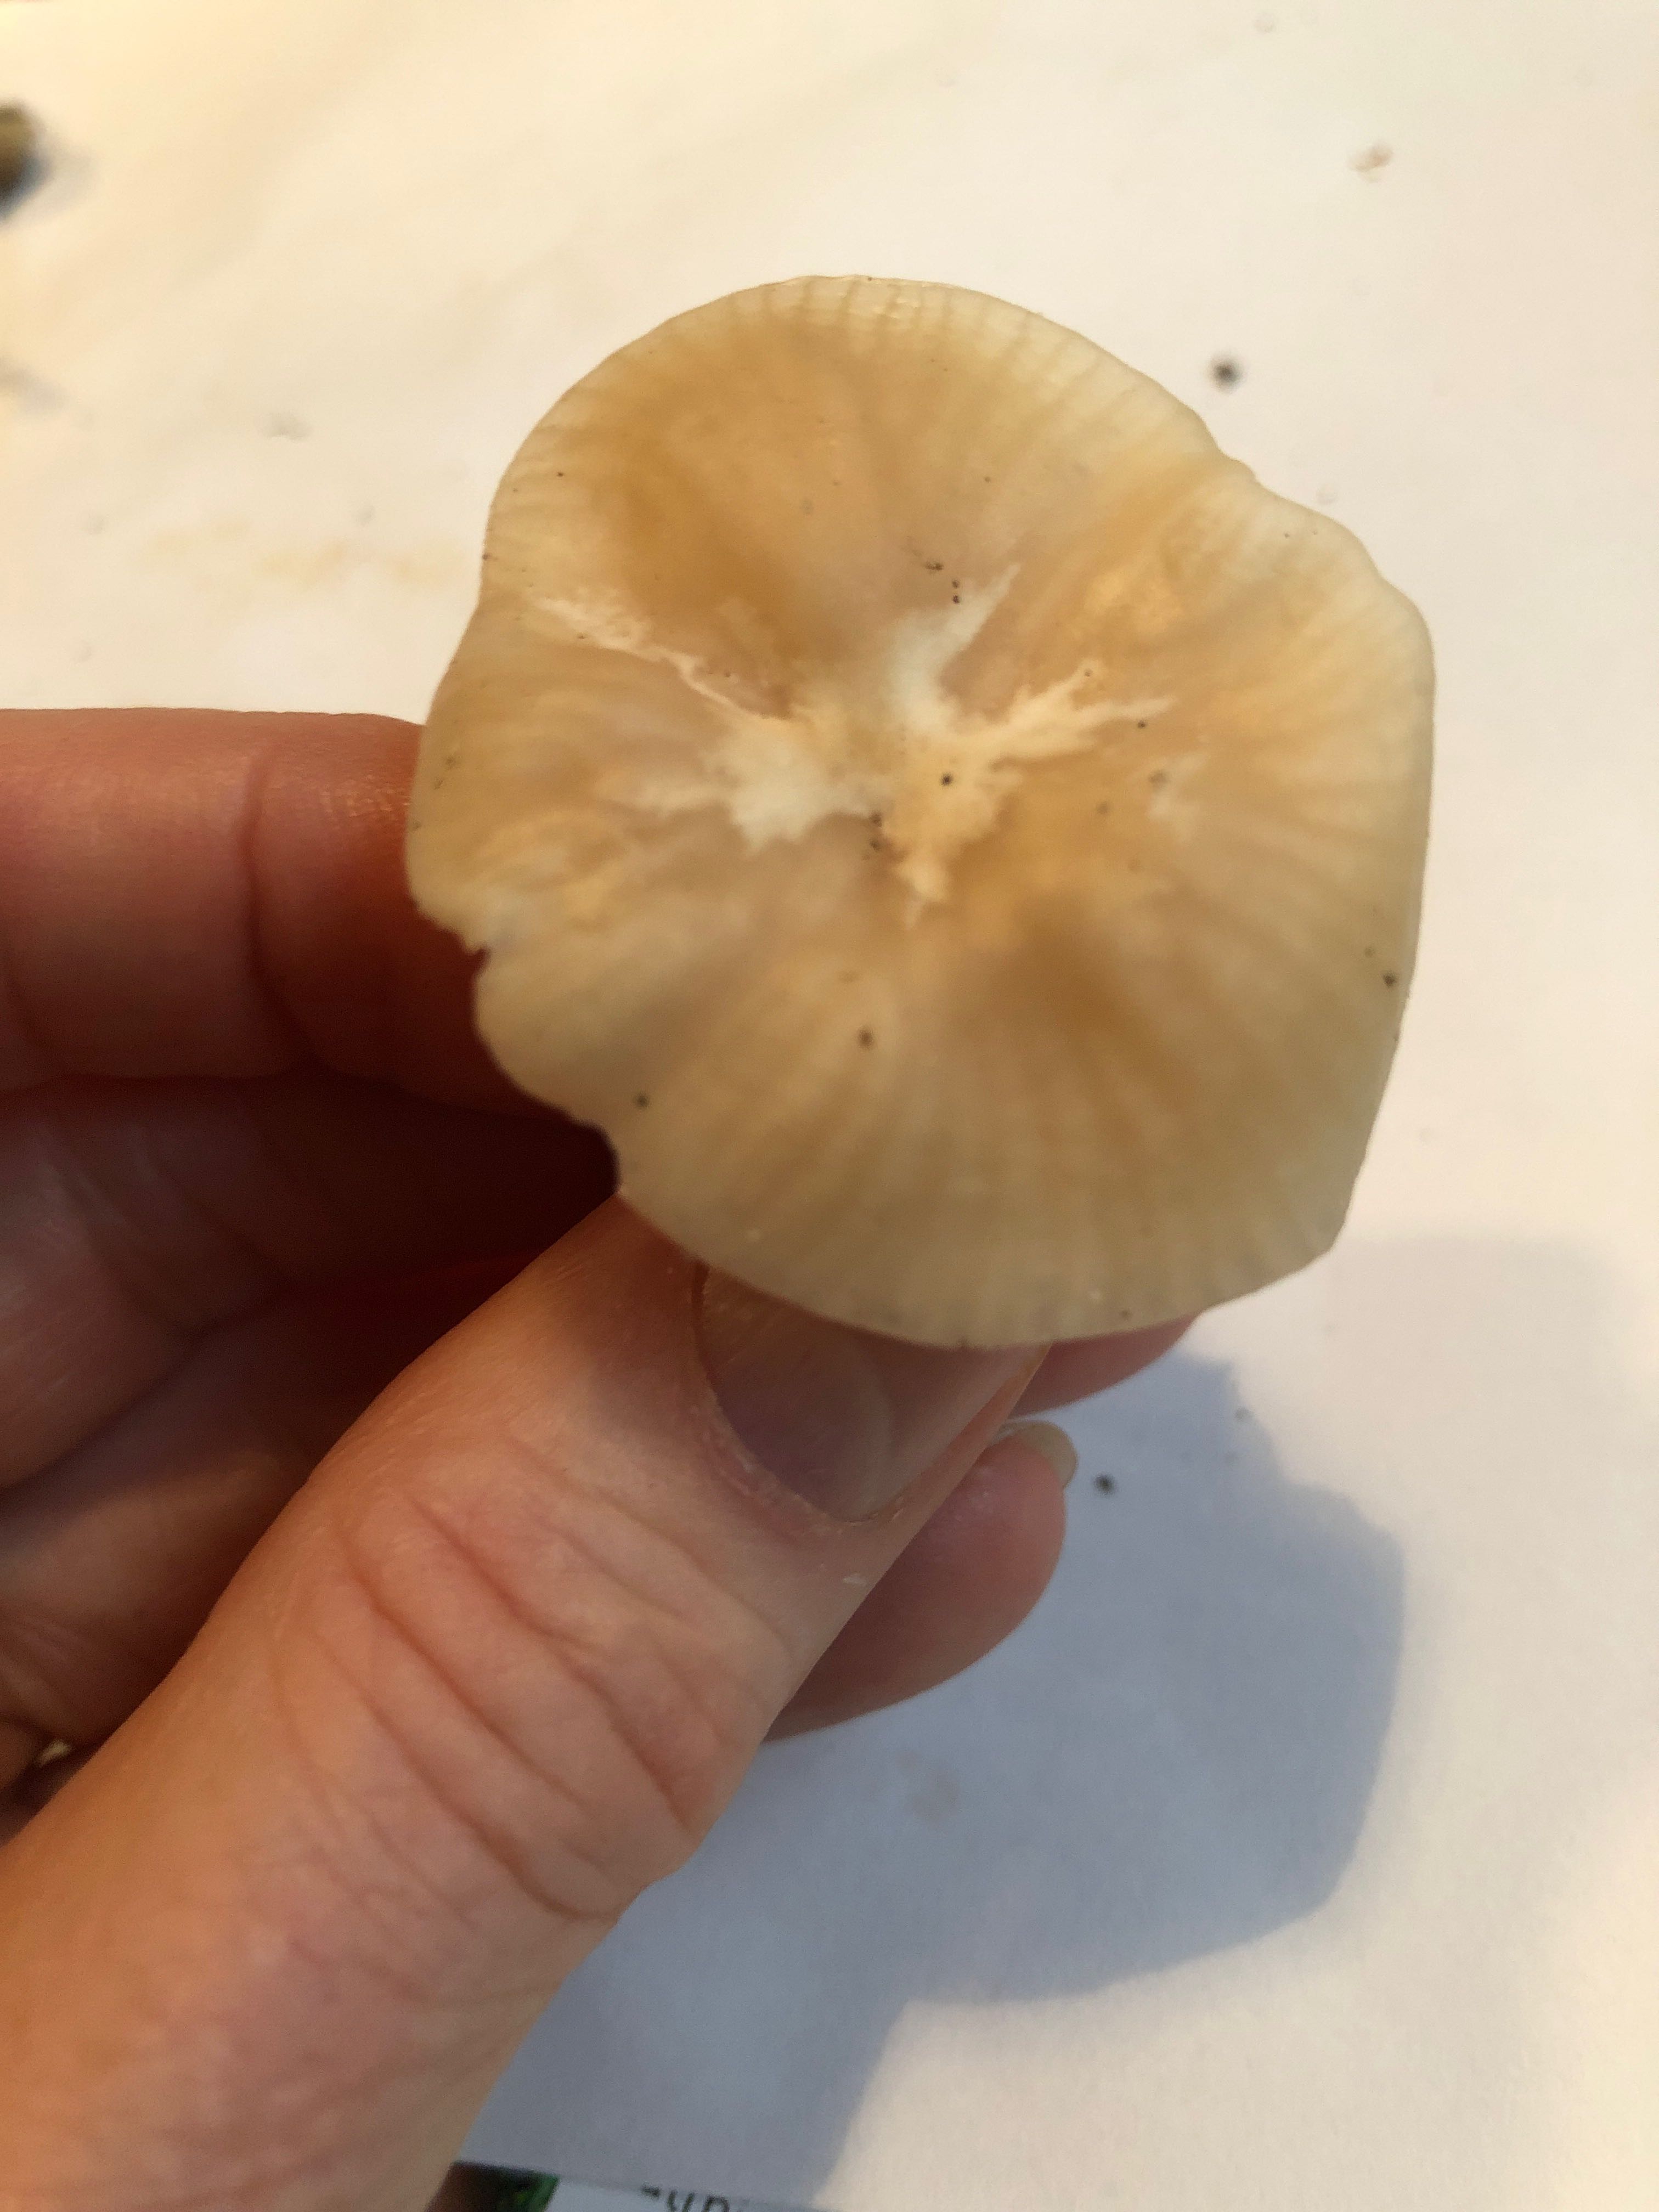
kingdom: Fungi
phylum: Basidiomycota
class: Agaricomycetes
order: Agaricales
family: Hygrophoraceae
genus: Cuphophyllus
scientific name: Cuphophyllus
